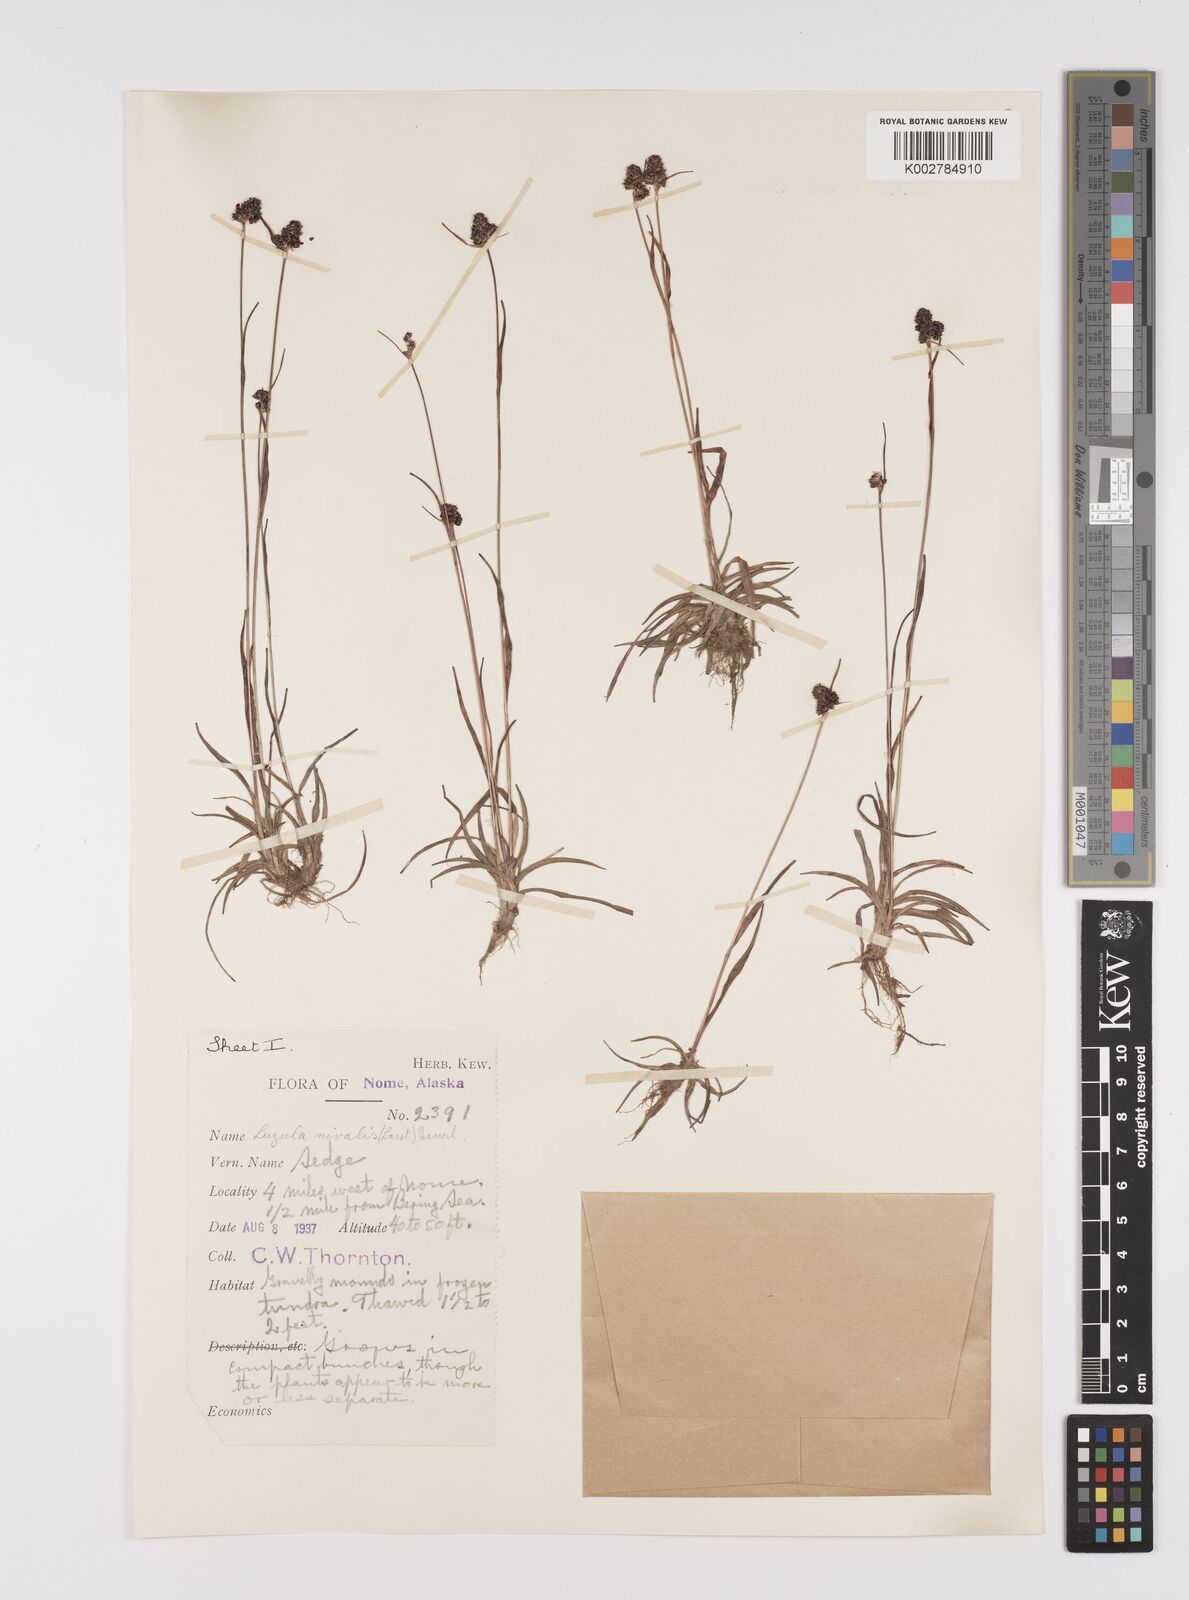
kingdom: Plantae
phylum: Tracheophyta
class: Liliopsida
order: Poales
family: Juncaceae
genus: Luzula
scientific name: Luzula nivalis
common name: Arctic woodrush
